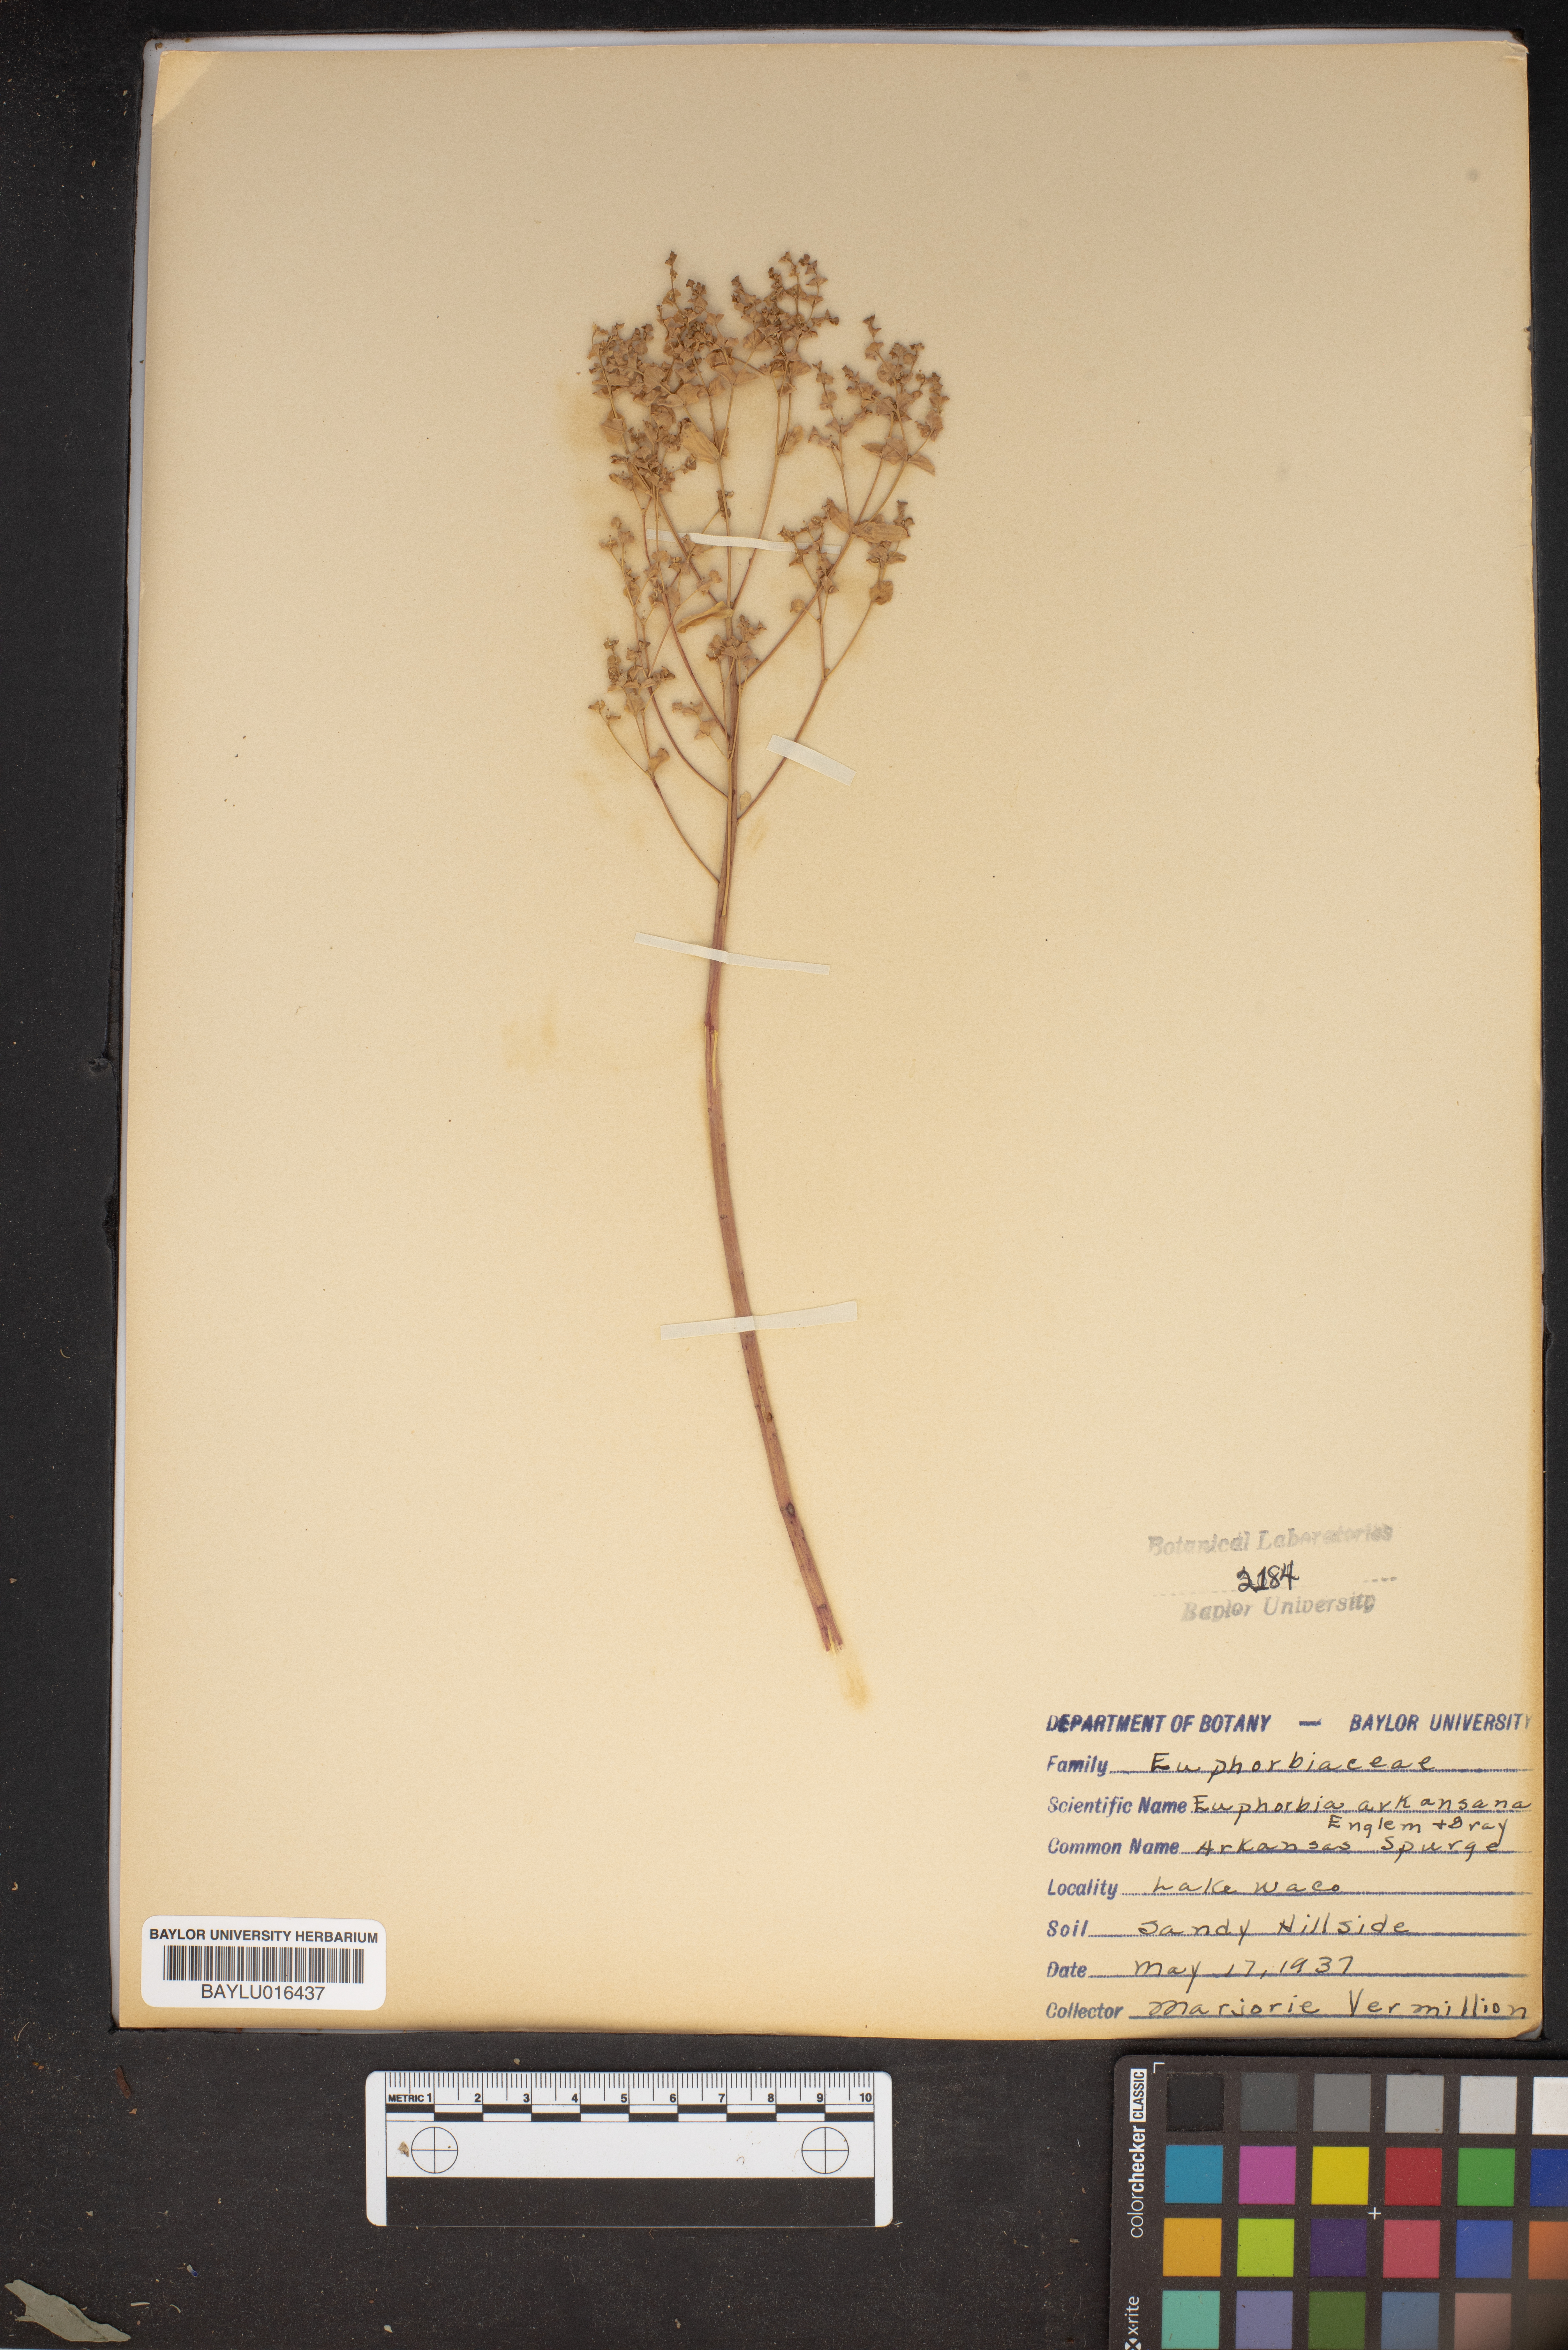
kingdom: Plantae
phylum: Tracheophyta
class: Magnoliopsida
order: Malpighiales
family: Euphorbiaceae
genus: Euphorbia
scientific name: Euphorbia spathulata
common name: Blunt spurge
